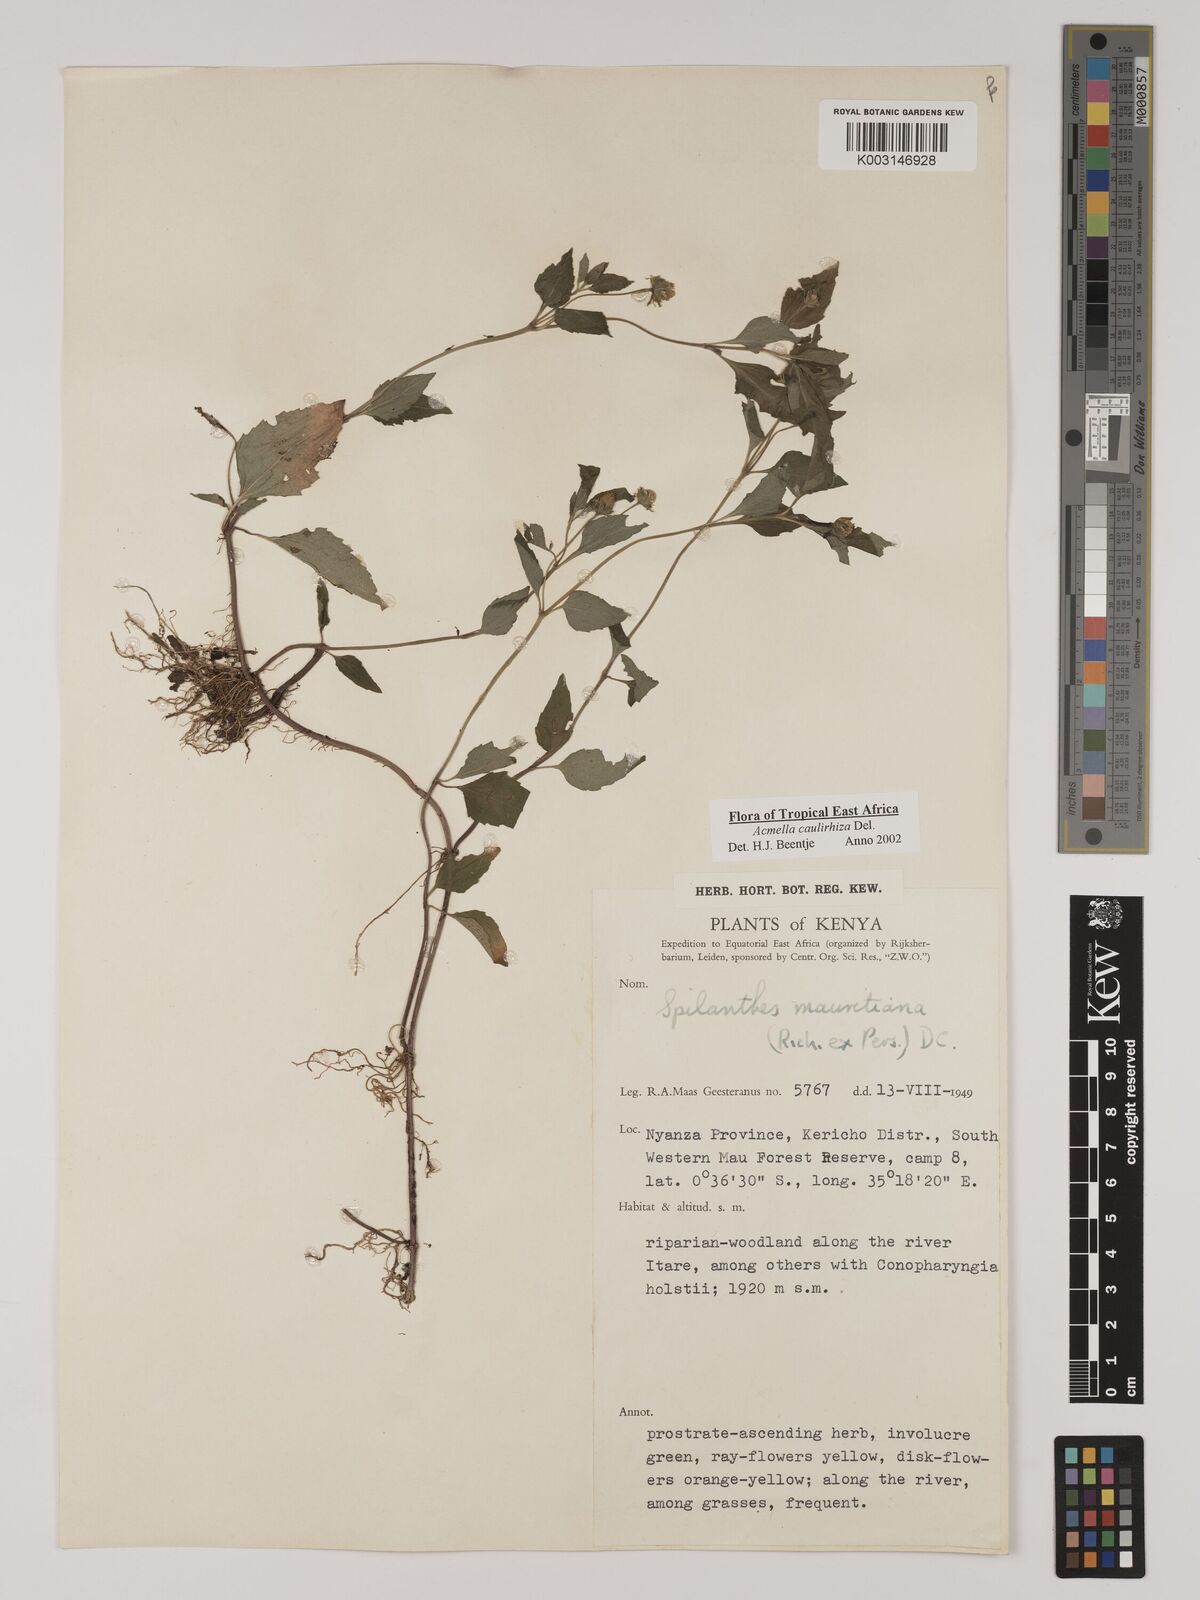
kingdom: Plantae
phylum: Tracheophyta
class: Magnoliopsida
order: Asterales
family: Asteraceae
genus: Acmella
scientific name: Acmella caulirhiza
